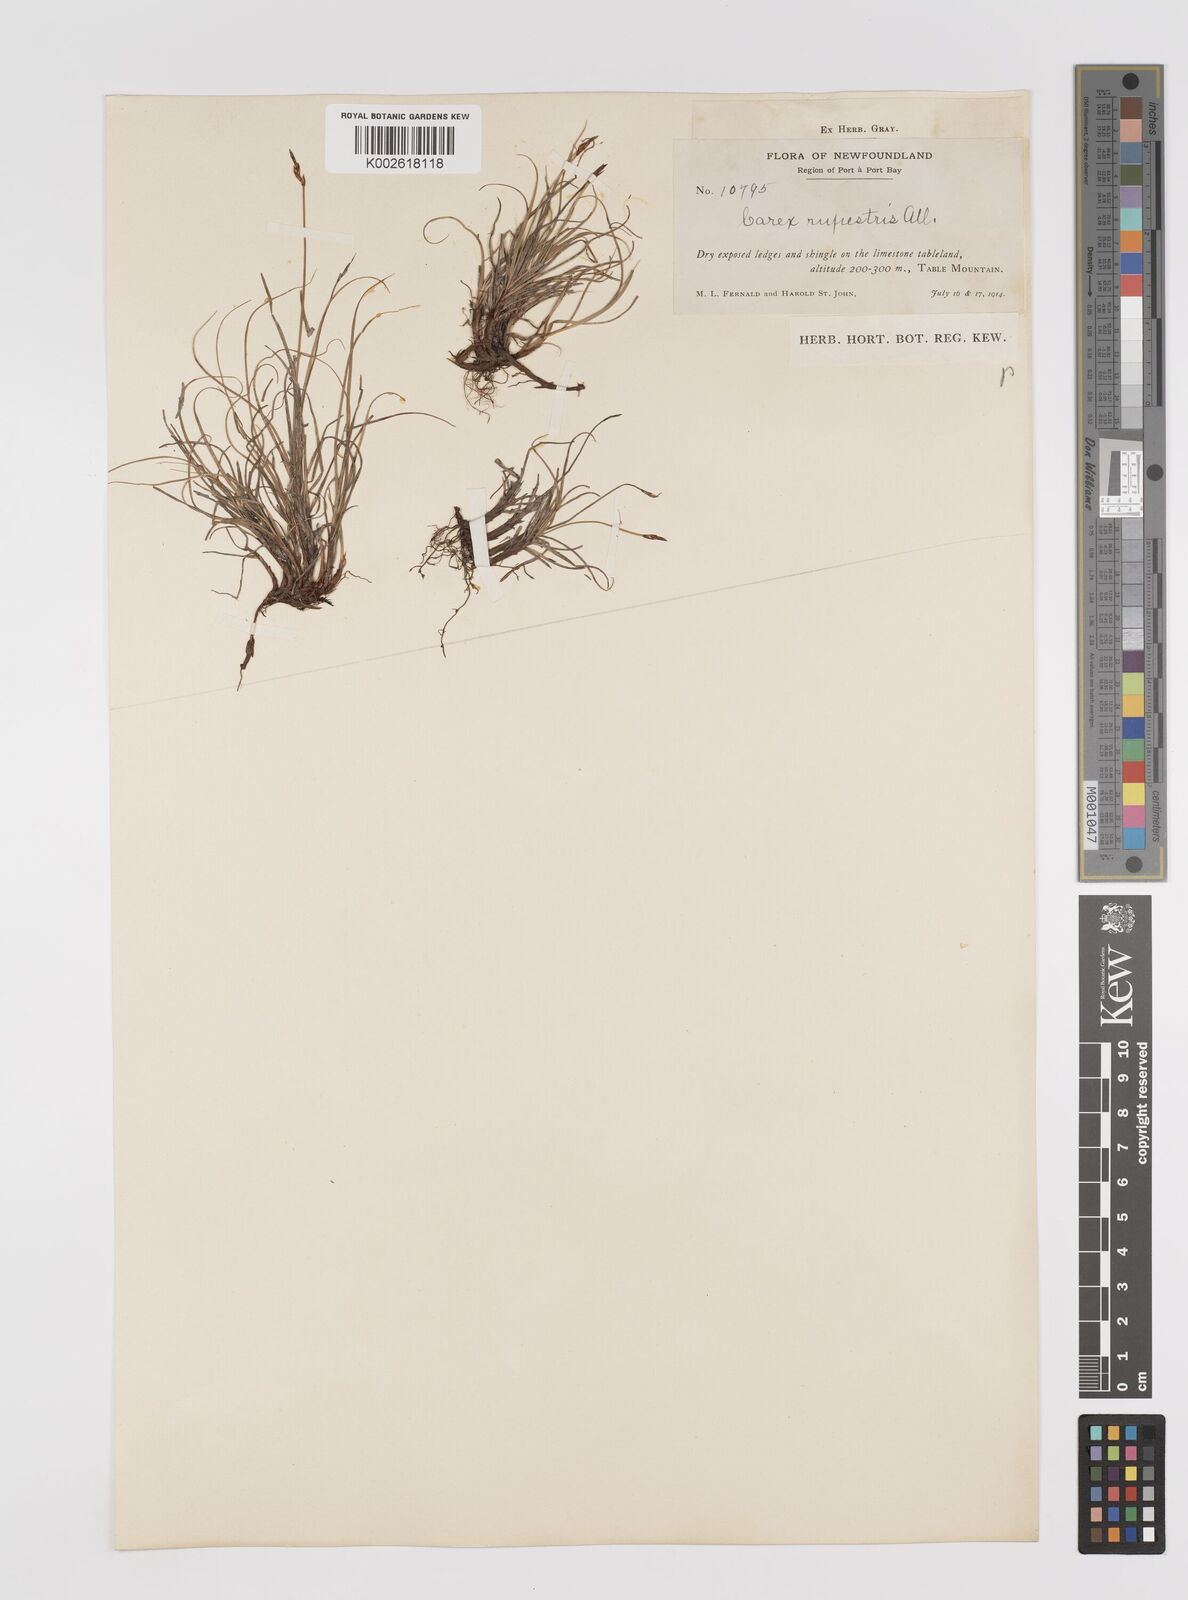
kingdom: Plantae
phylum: Tracheophyta
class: Liliopsida
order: Poales
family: Cyperaceae
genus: Carex
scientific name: Carex rupestris
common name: Rock sedge
